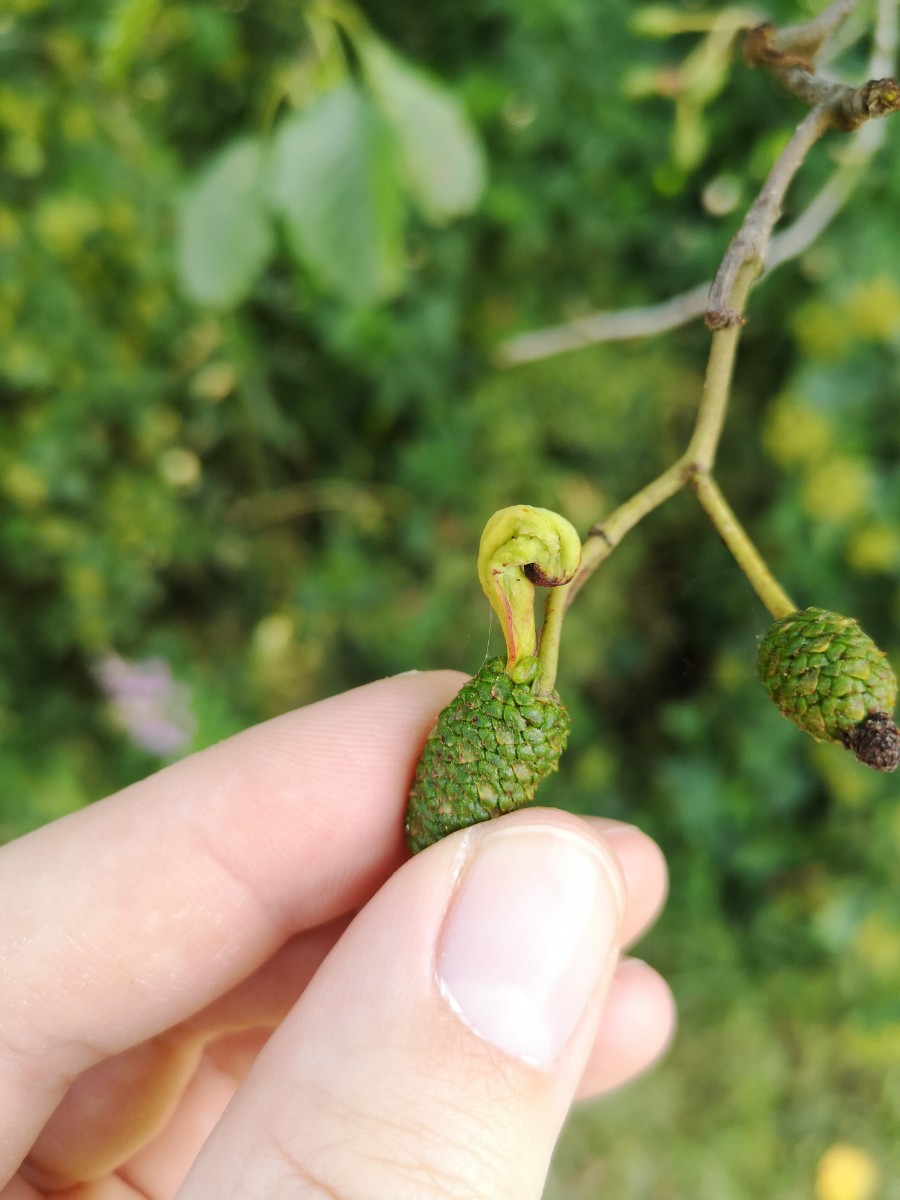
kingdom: Fungi
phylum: Ascomycota
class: Taphrinomycetes
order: Taphrinales
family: Taphrinaceae
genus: Taphrina
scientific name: Taphrina alni
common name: Alder tongue
